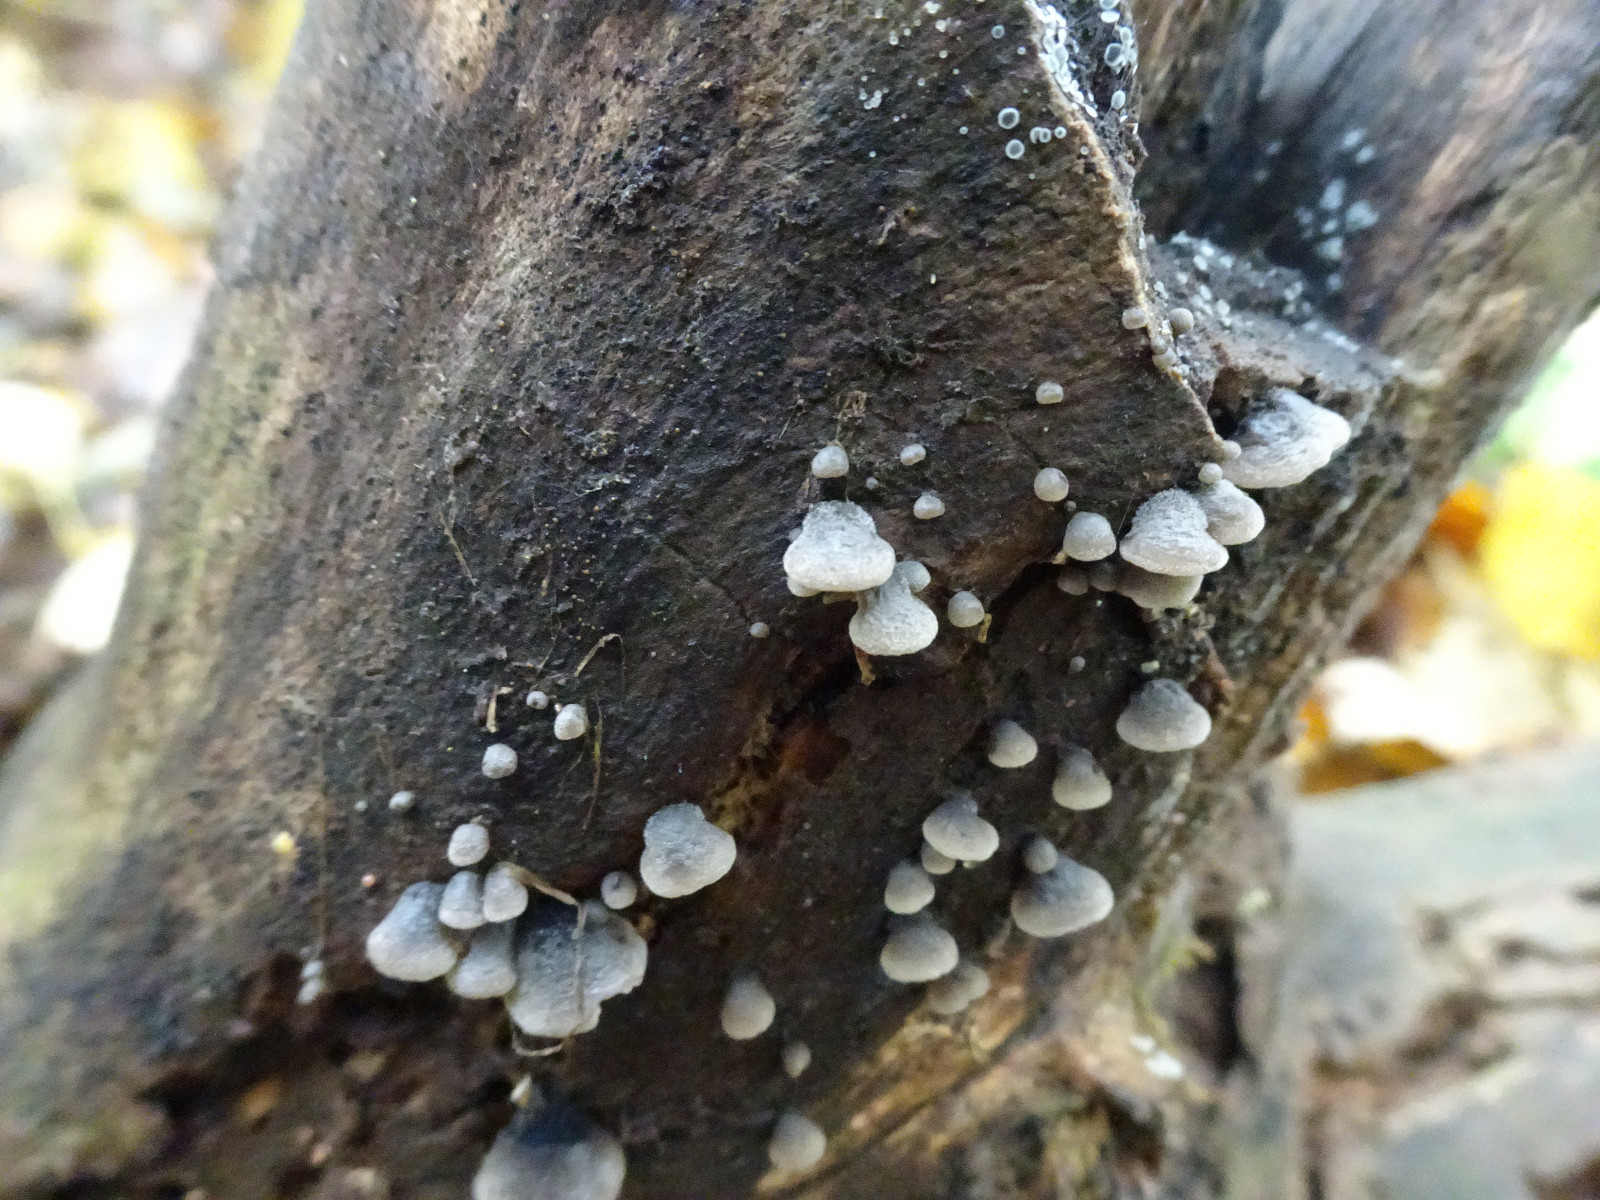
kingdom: Fungi
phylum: Basidiomycota
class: Agaricomycetes
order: Agaricales
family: Pleurotaceae
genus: Resupinatus
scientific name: Resupinatus trichotis
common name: mørkfiltet barkhat
